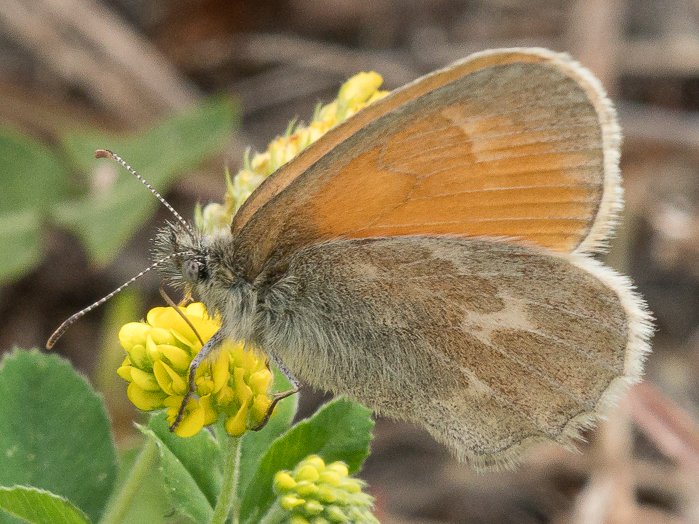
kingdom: Animalia
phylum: Arthropoda
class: Insecta
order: Lepidoptera
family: Nymphalidae
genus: Coenonympha
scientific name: Coenonympha tullia
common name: Large Heath
